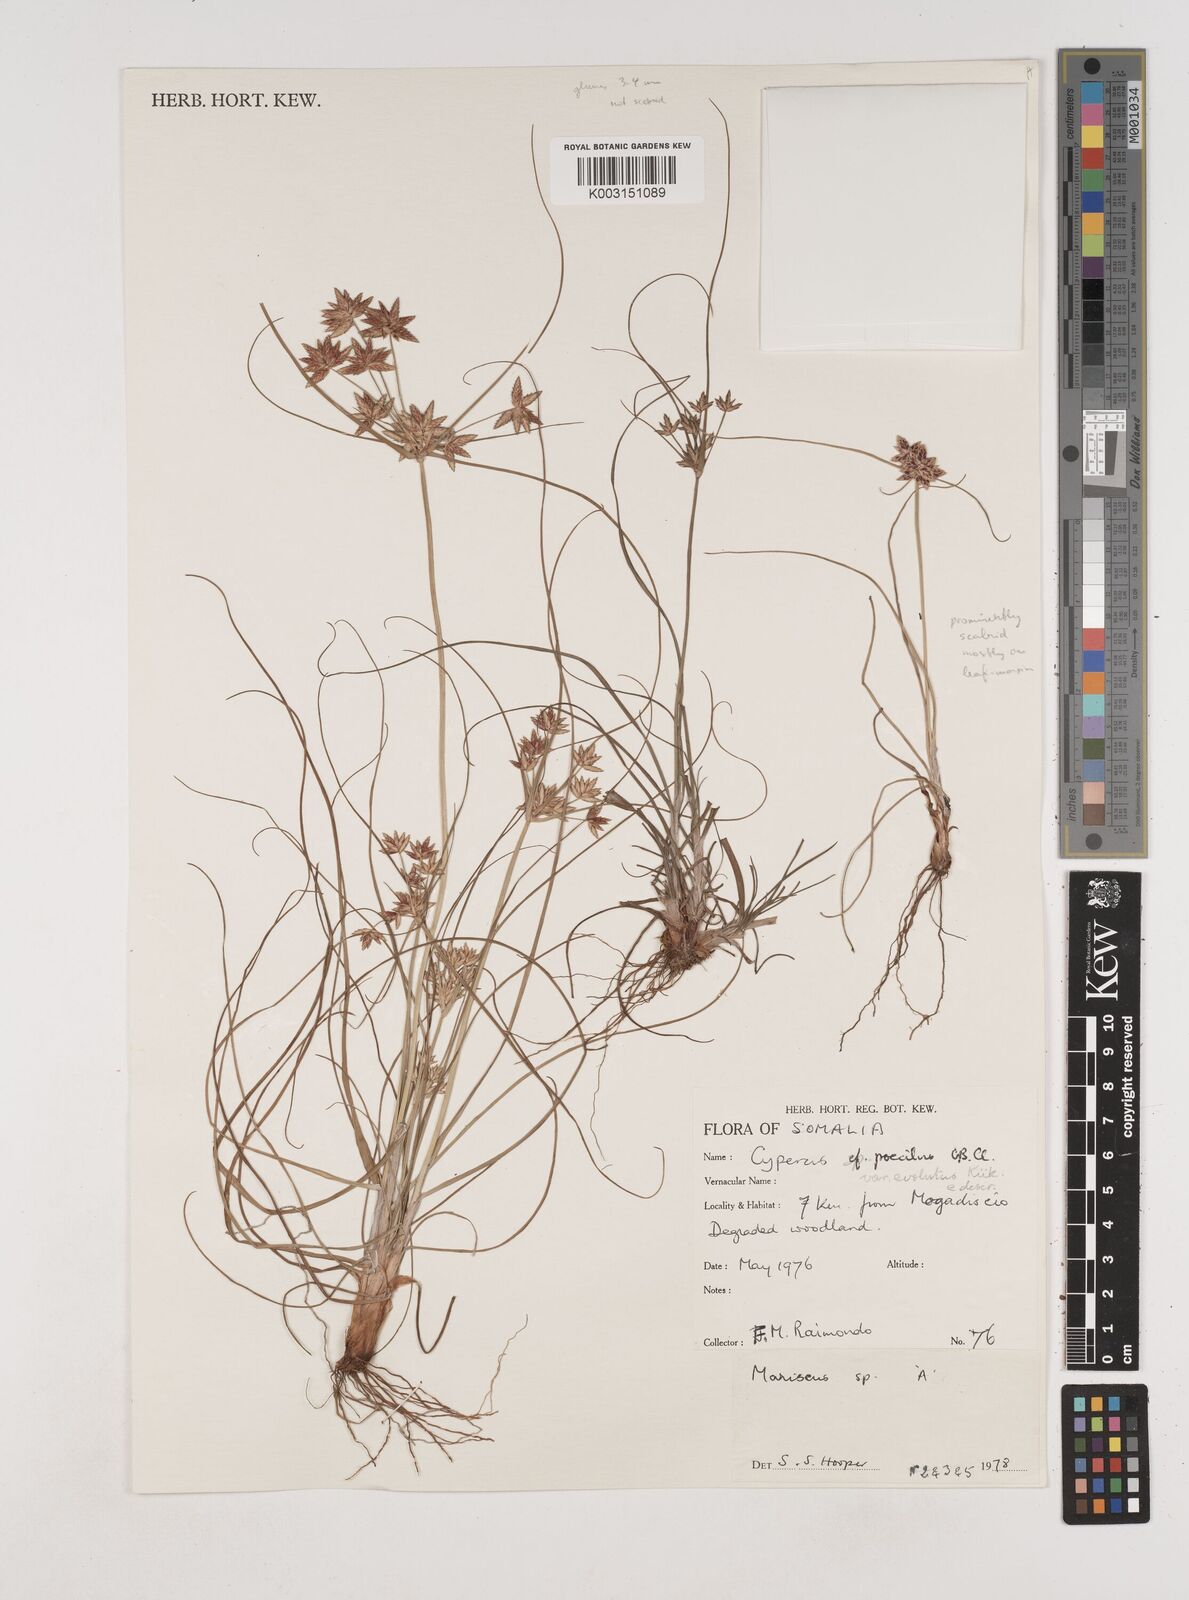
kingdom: Plantae
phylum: Tracheophyta
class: Liliopsida
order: Poales
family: Cyperaceae
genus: Cyperus
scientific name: Cyperus poecilus
